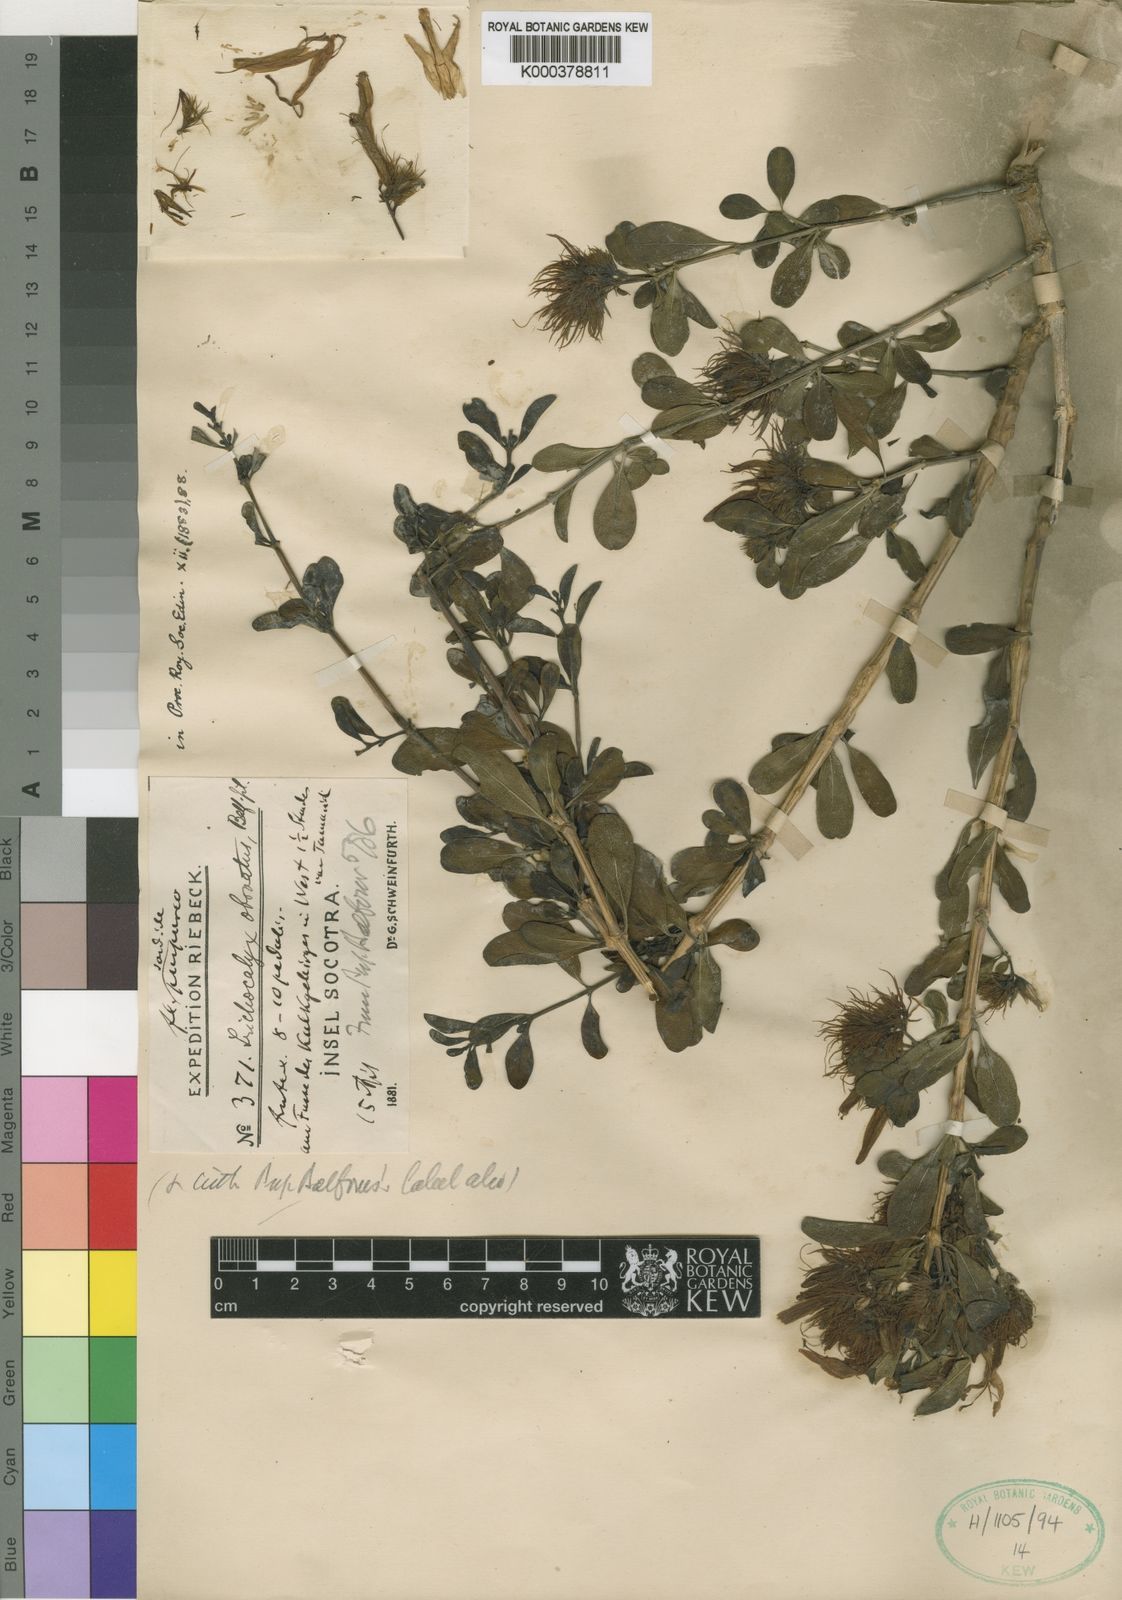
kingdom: Plantae
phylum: Tracheophyta
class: Magnoliopsida
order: Lamiales
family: Acanthaceae
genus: Trichocalyx
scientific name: Trichocalyx obovatus
